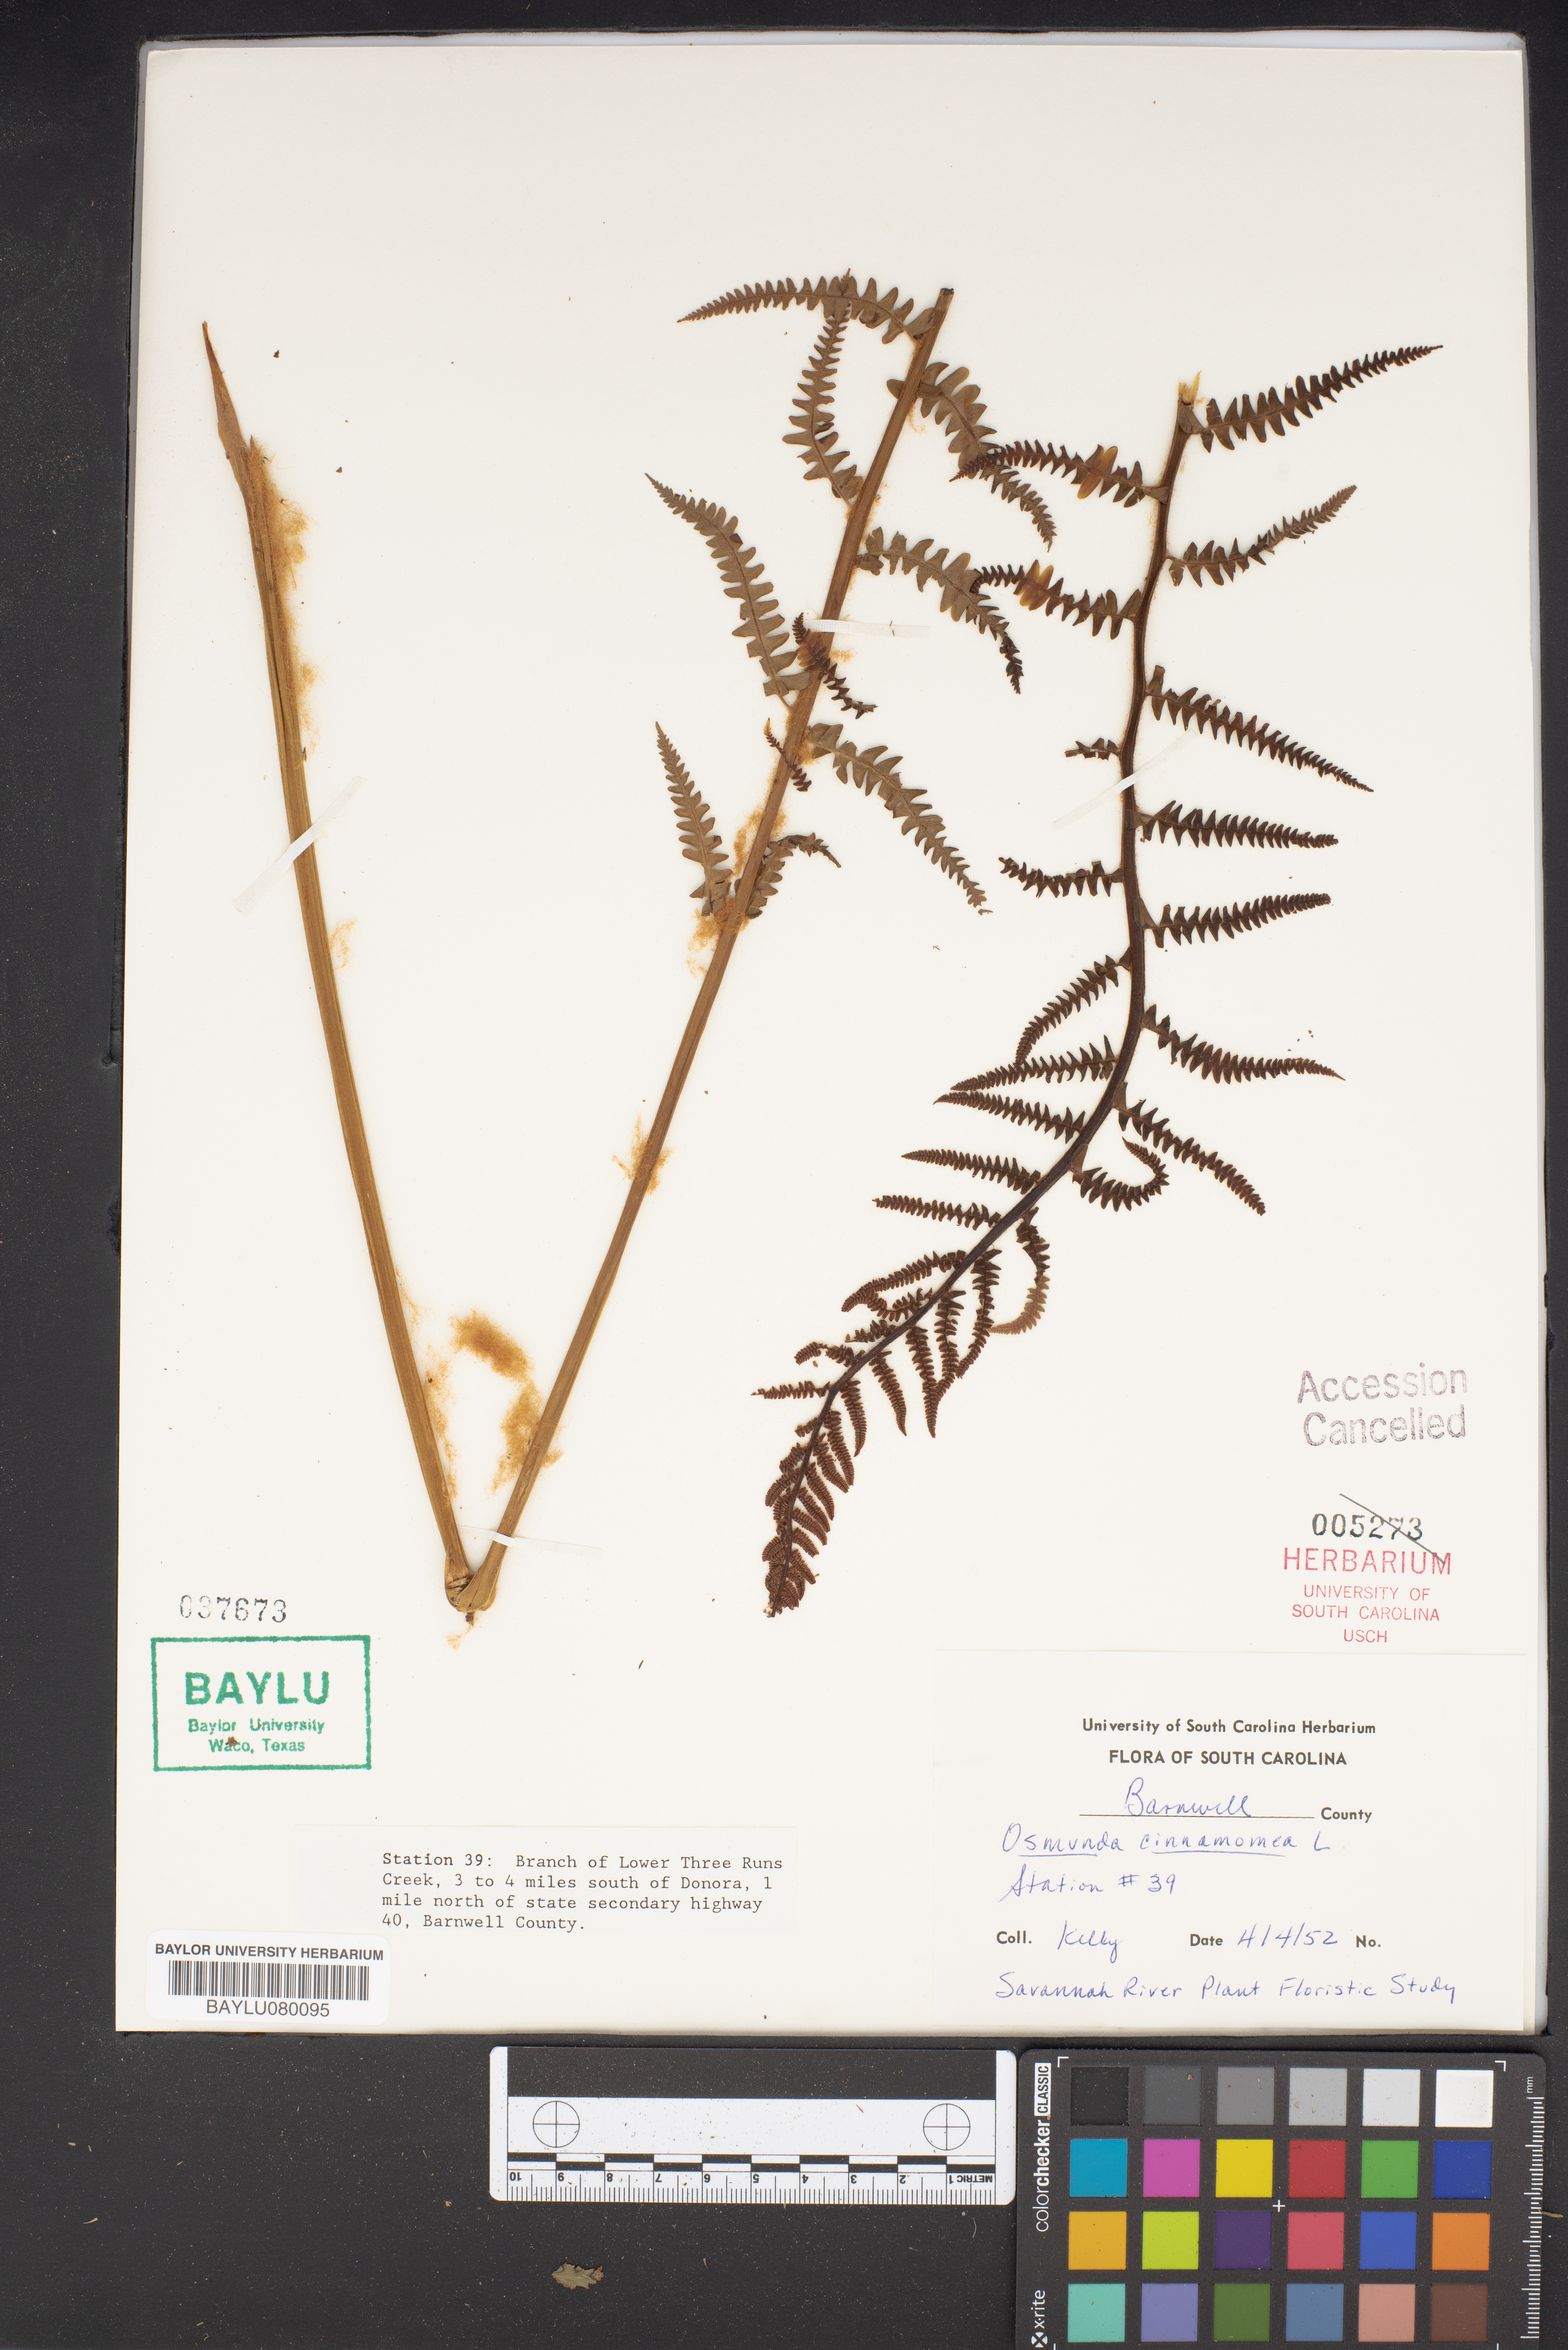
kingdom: Plantae
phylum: Tracheophyta
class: Polypodiopsida
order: Osmundales
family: Osmundaceae
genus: Osmundastrum
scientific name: Osmundastrum cinnamomeum
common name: Cinnamon fern
